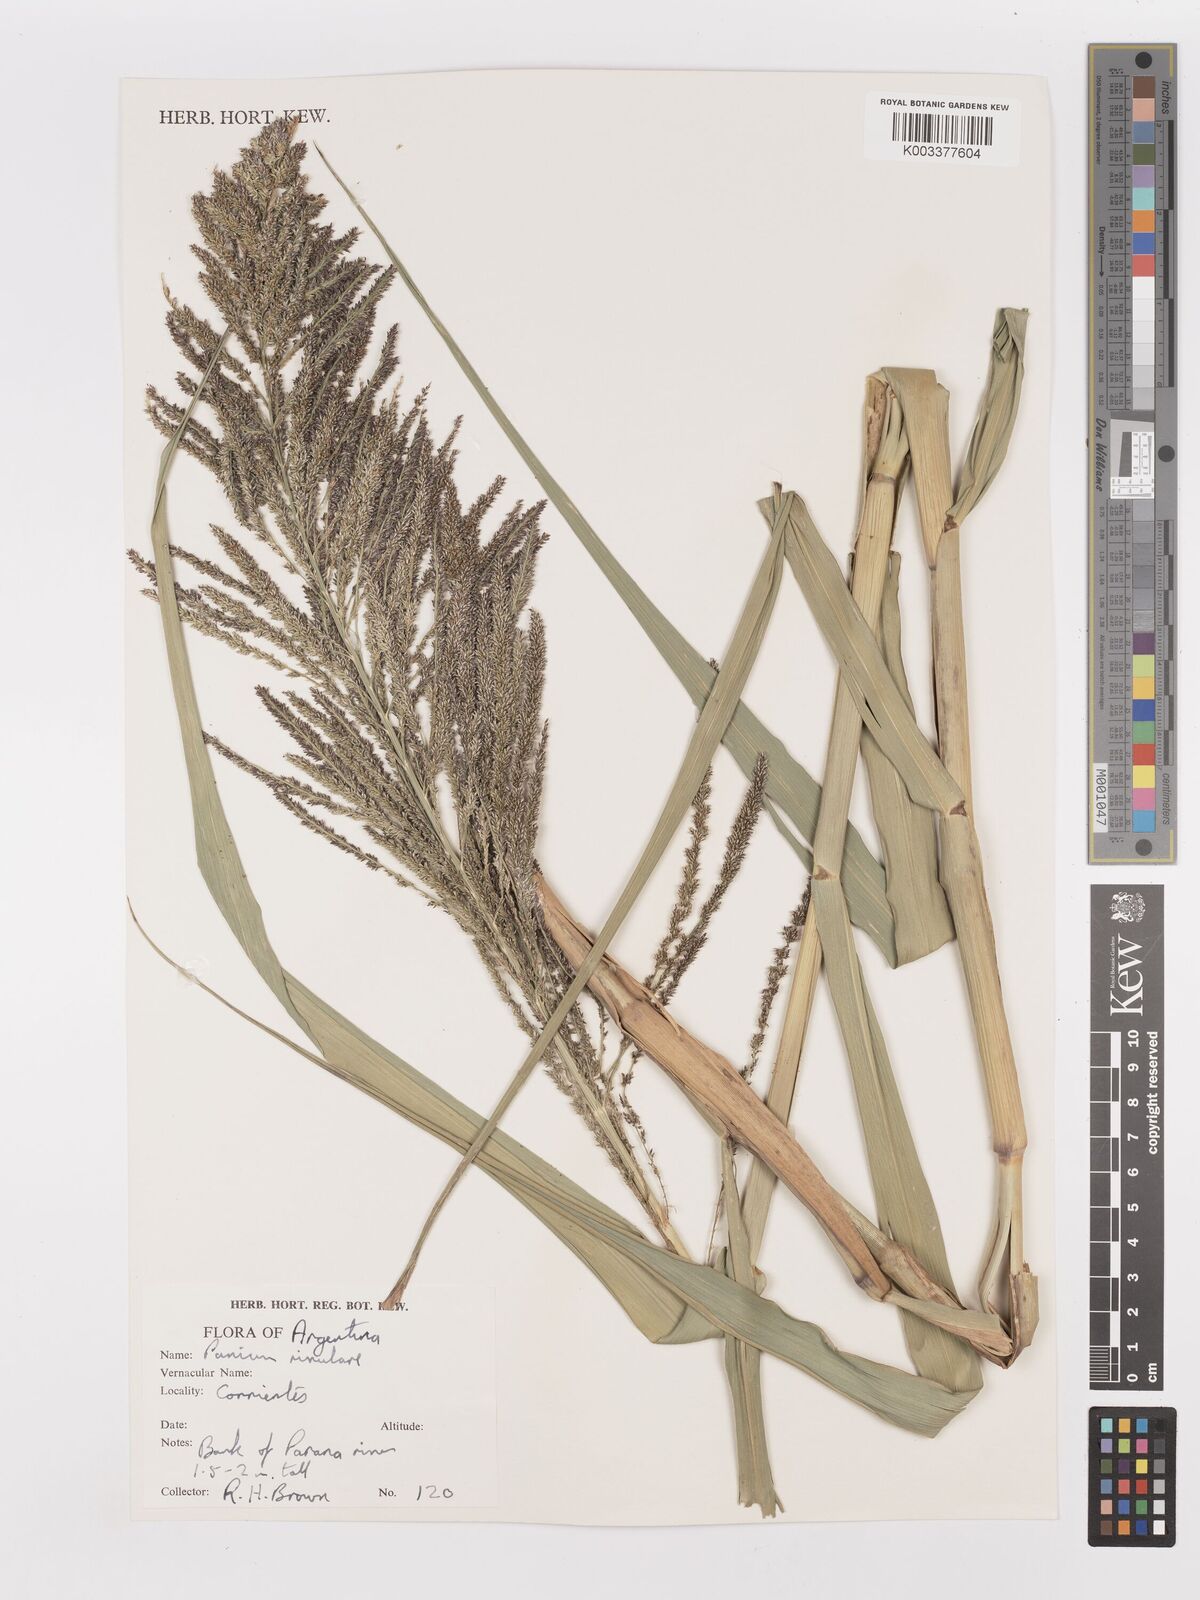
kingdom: Plantae
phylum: Tracheophyta
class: Liliopsida
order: Poales
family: Poaceae
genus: Hymenachne
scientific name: Hymenachne pernambucensis
